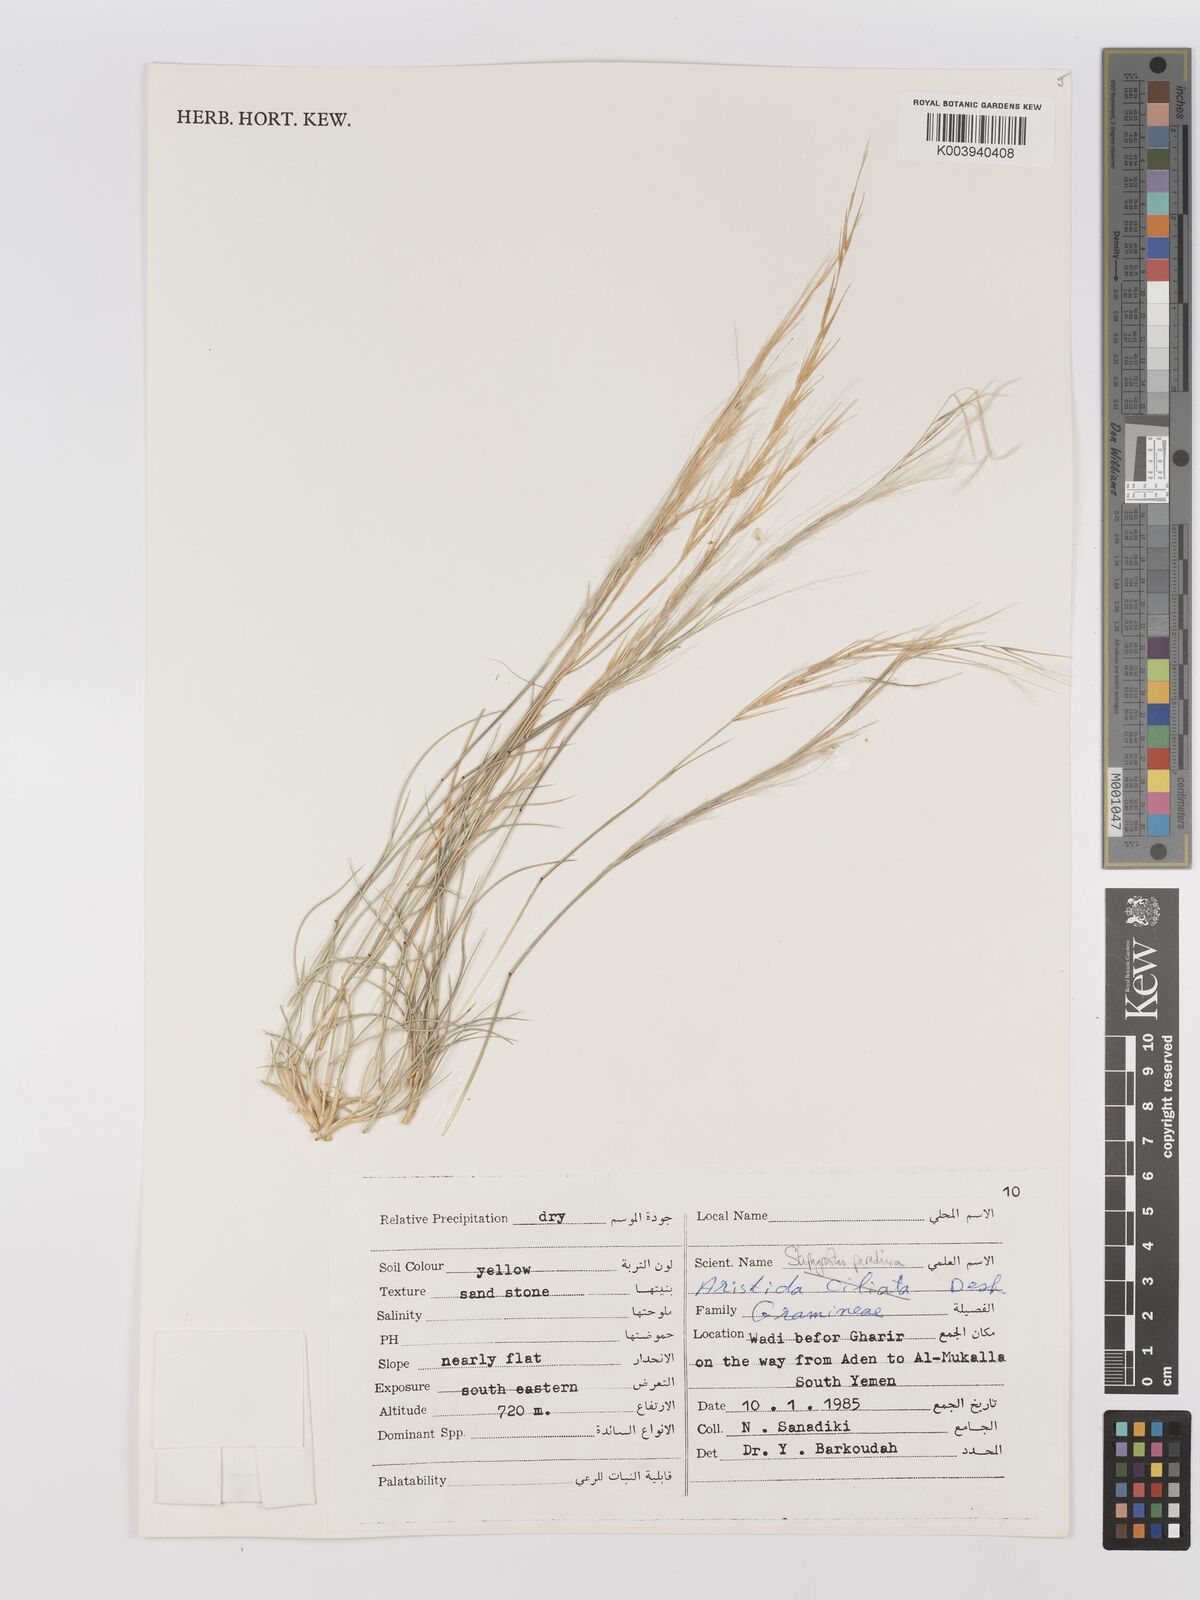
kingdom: Plantae
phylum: Tracheophyta
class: Liliopsida
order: Poales
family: Poaceae
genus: Stipagrostis
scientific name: Stipagrostis paradisea
